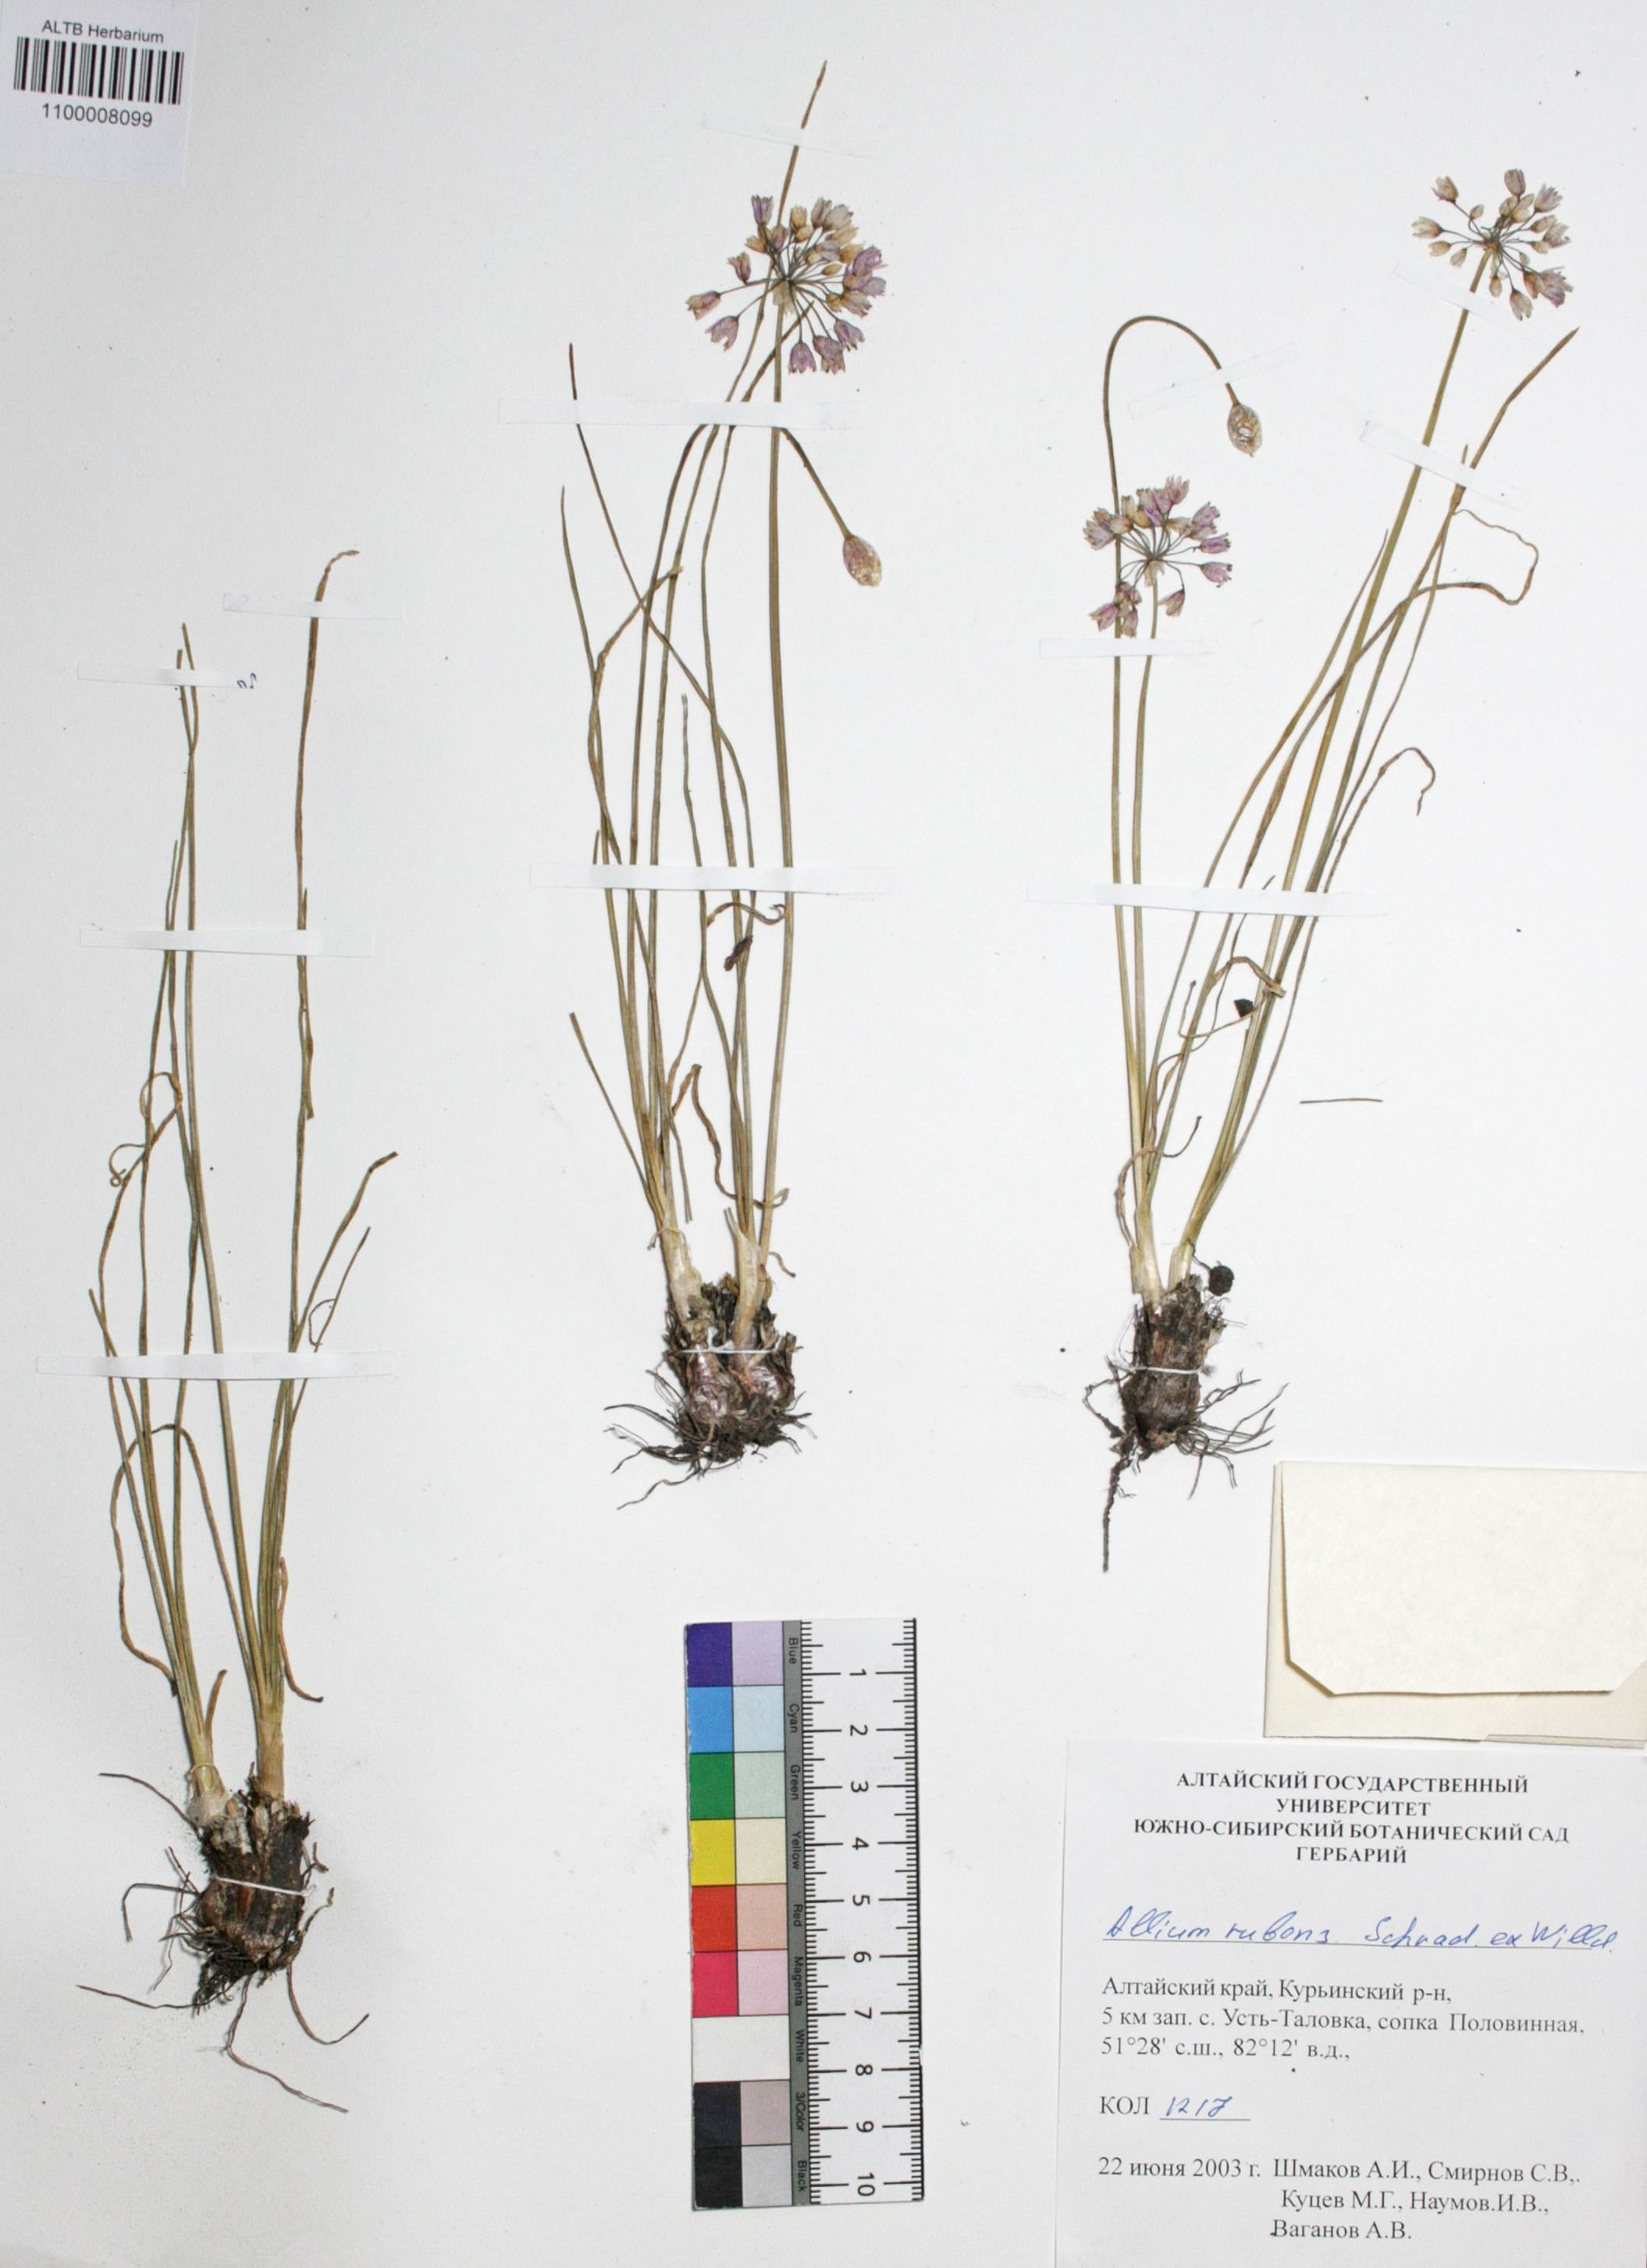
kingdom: Plantae
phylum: Tracheophyta
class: Liliopsida
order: Asparagales
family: Amaryllidaceae
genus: Allium
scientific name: Allium rubens
